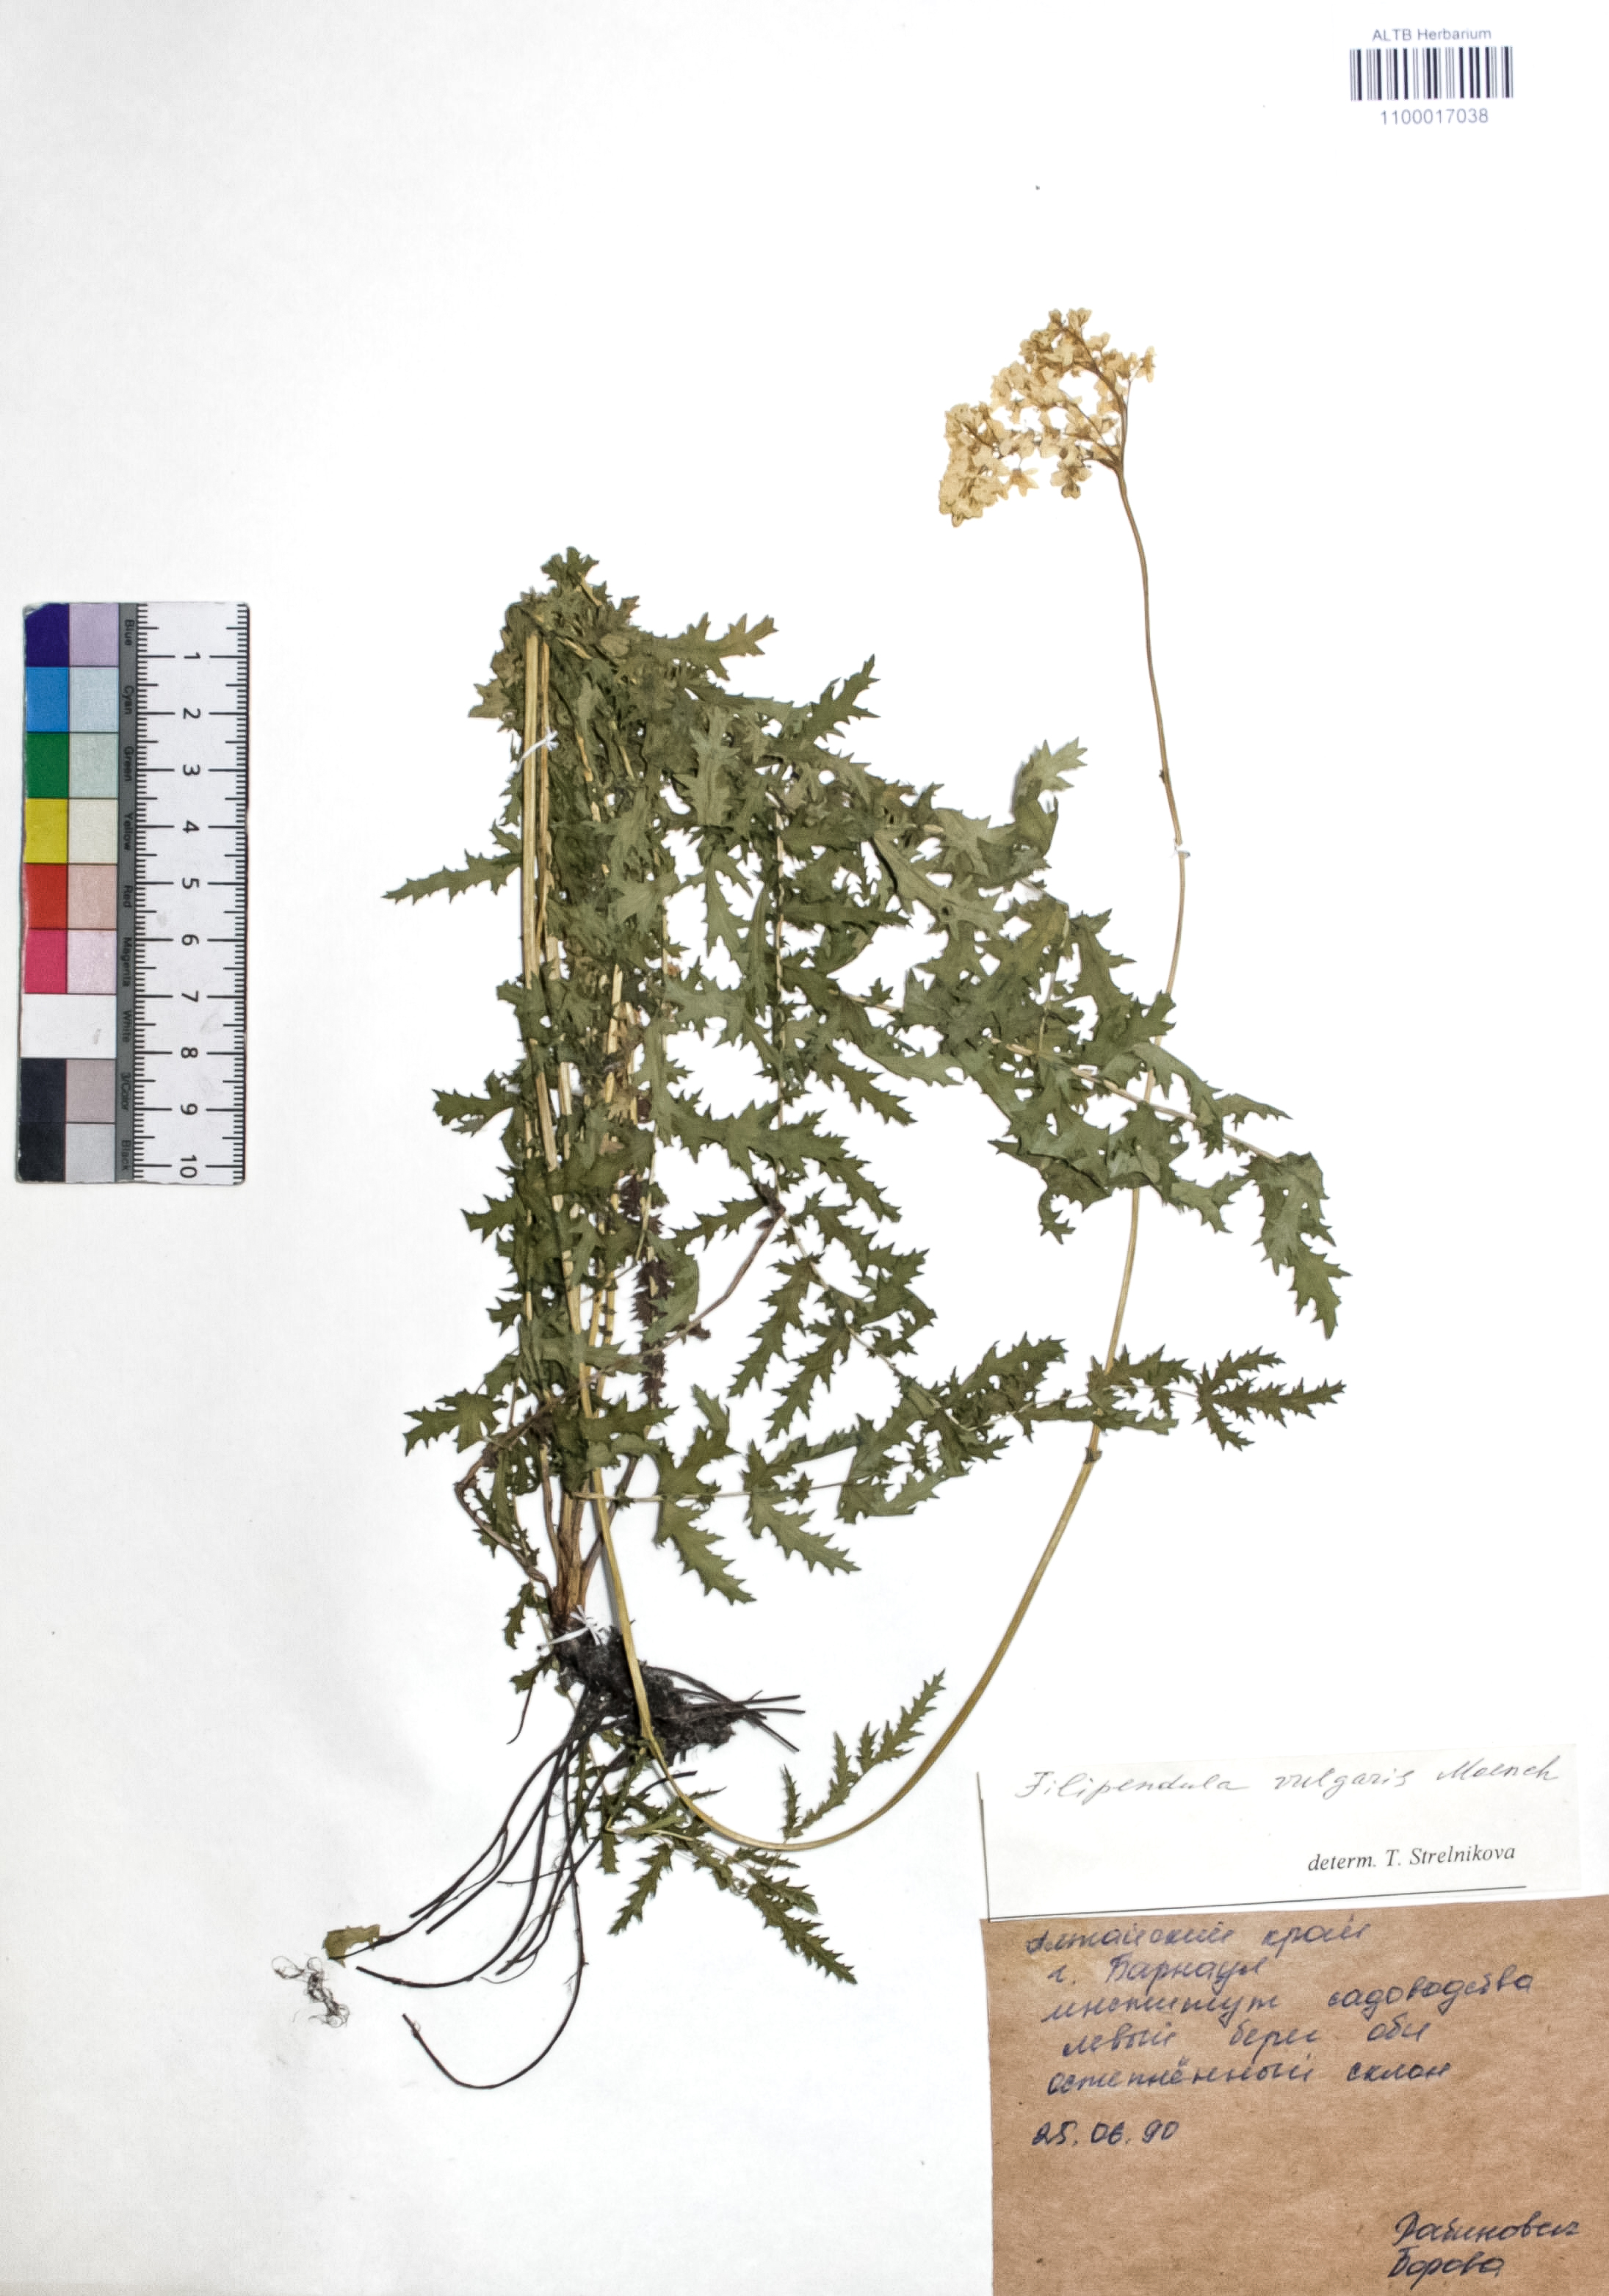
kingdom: Plantae
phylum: Tracheophyta
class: Magnoliopsida
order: Rosales
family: Rosaceae
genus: Filipendula
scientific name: Filipendula vulgaris
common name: Dropwort
